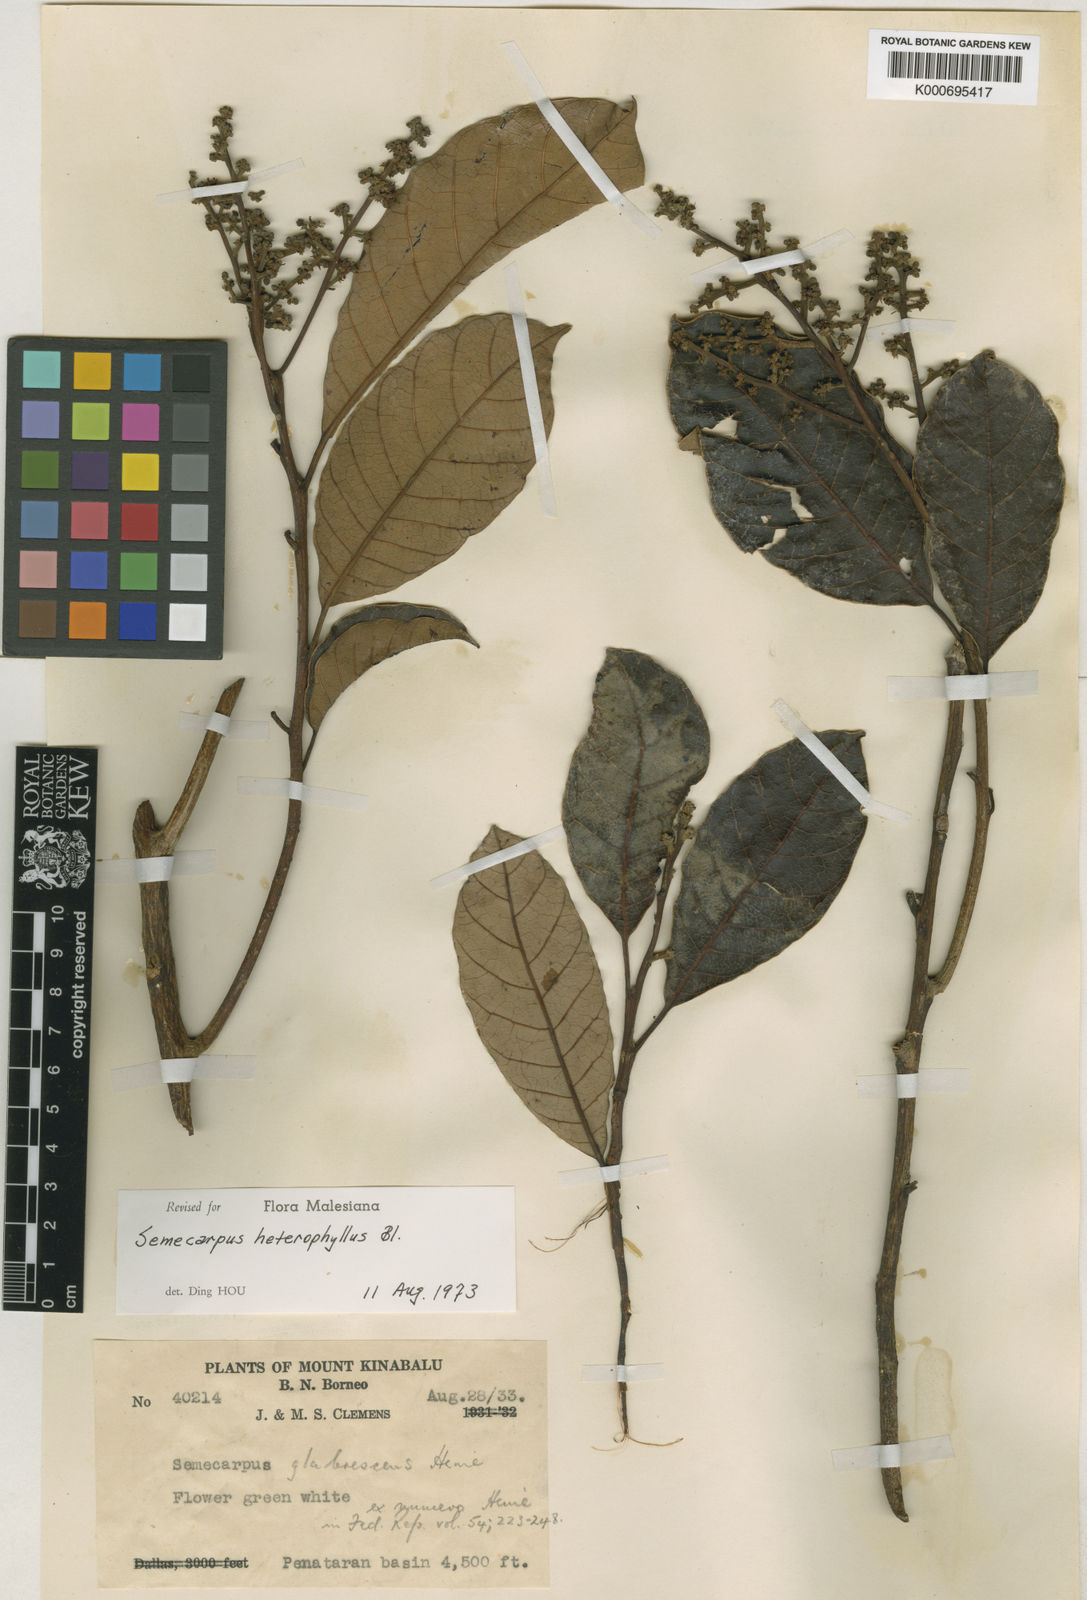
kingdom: Plantae
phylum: Tracheophyta
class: Magnoliopsida
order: Sapindales
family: Anacardiaceae
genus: Semecarpus
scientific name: Semecarpus heterophyllus
